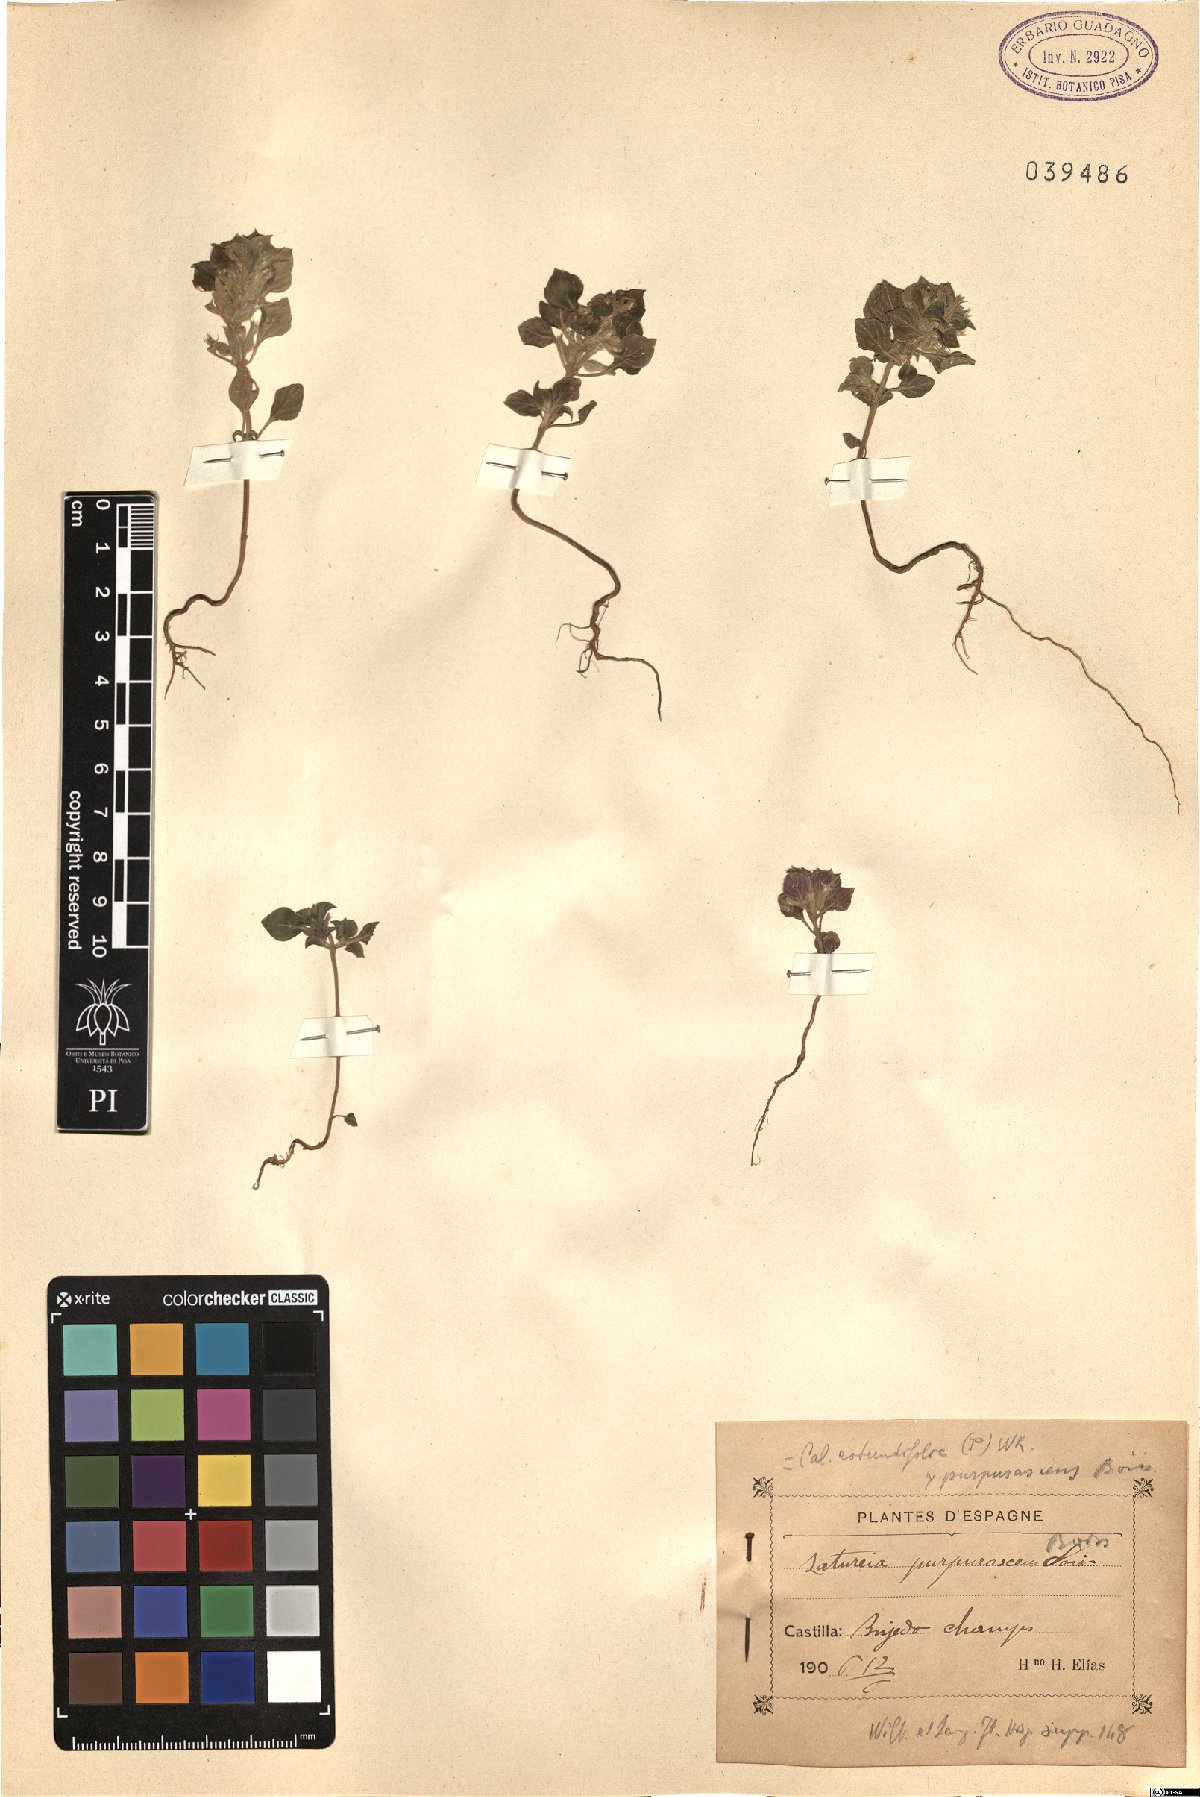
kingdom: Plantae
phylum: Tracheophyta
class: Magnoliopsida
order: Lamiales
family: Lamiaceae
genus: Satureja
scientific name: Satureja
